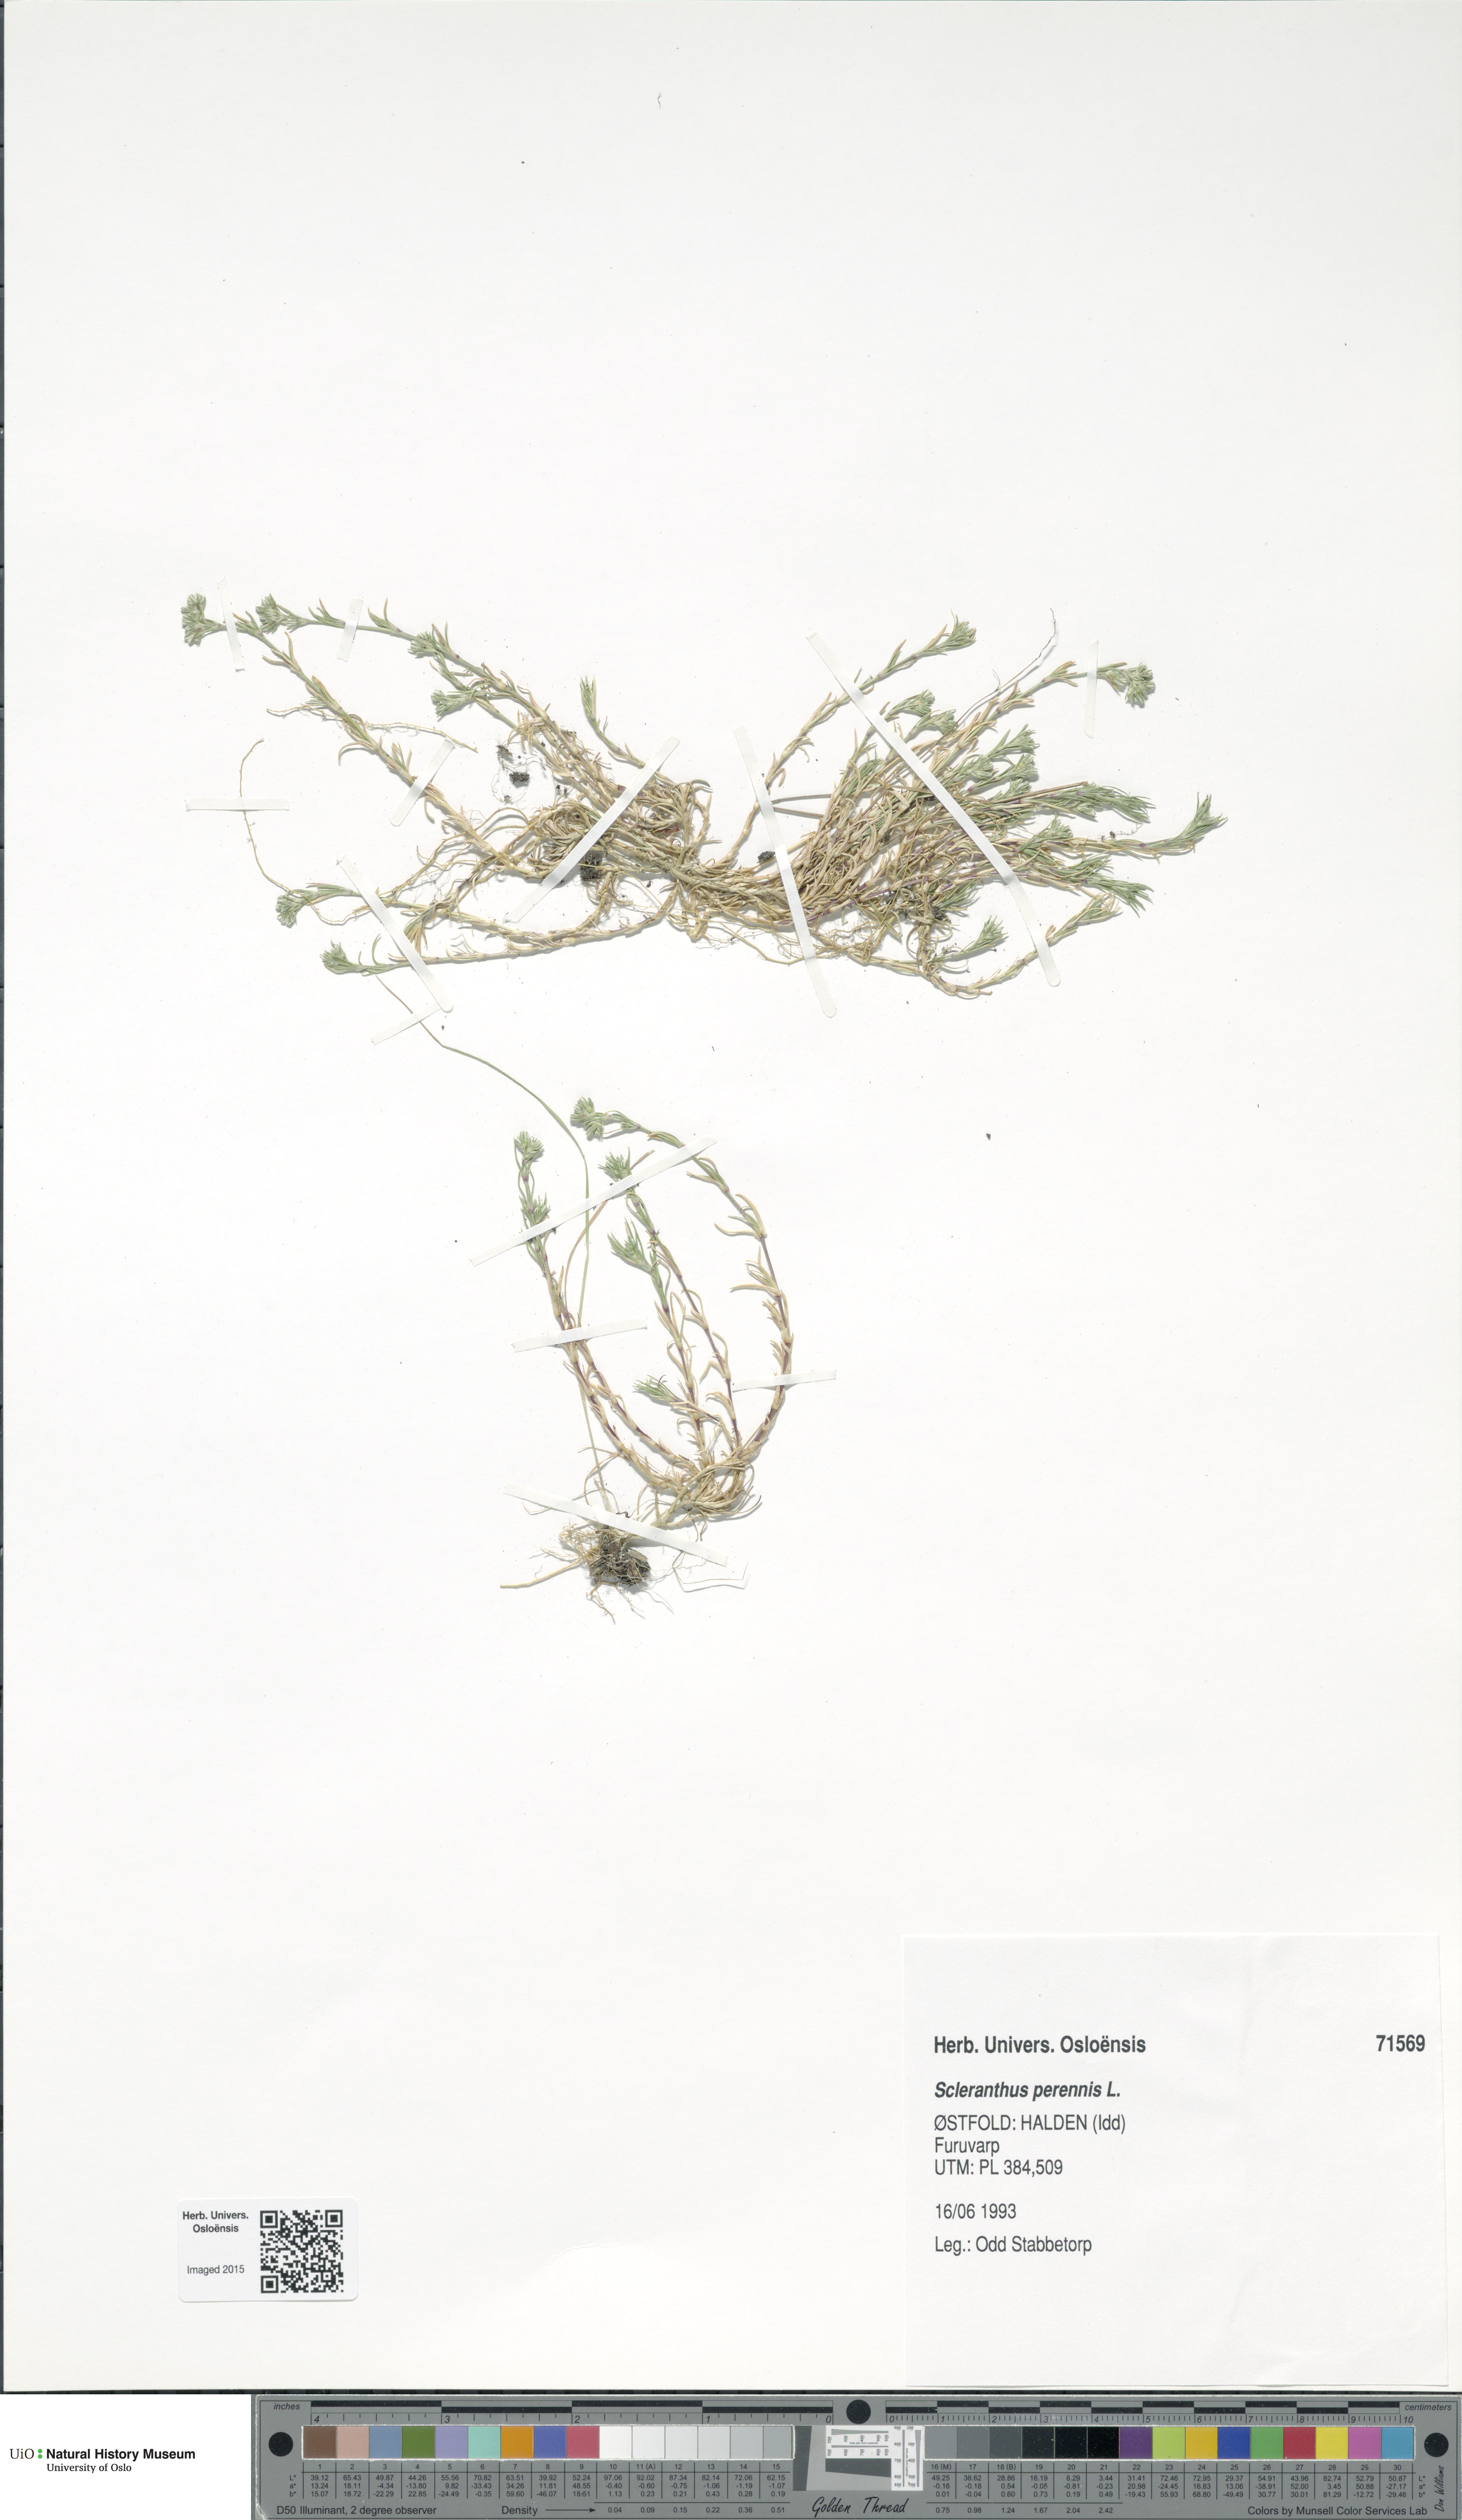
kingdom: Plantae
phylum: Tracheophyta
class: Magnoliopsida
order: Caryophyllales
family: Caryophyllaceae
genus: Scleranthus
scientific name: Scleranthus perennis
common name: Perennial knawel
